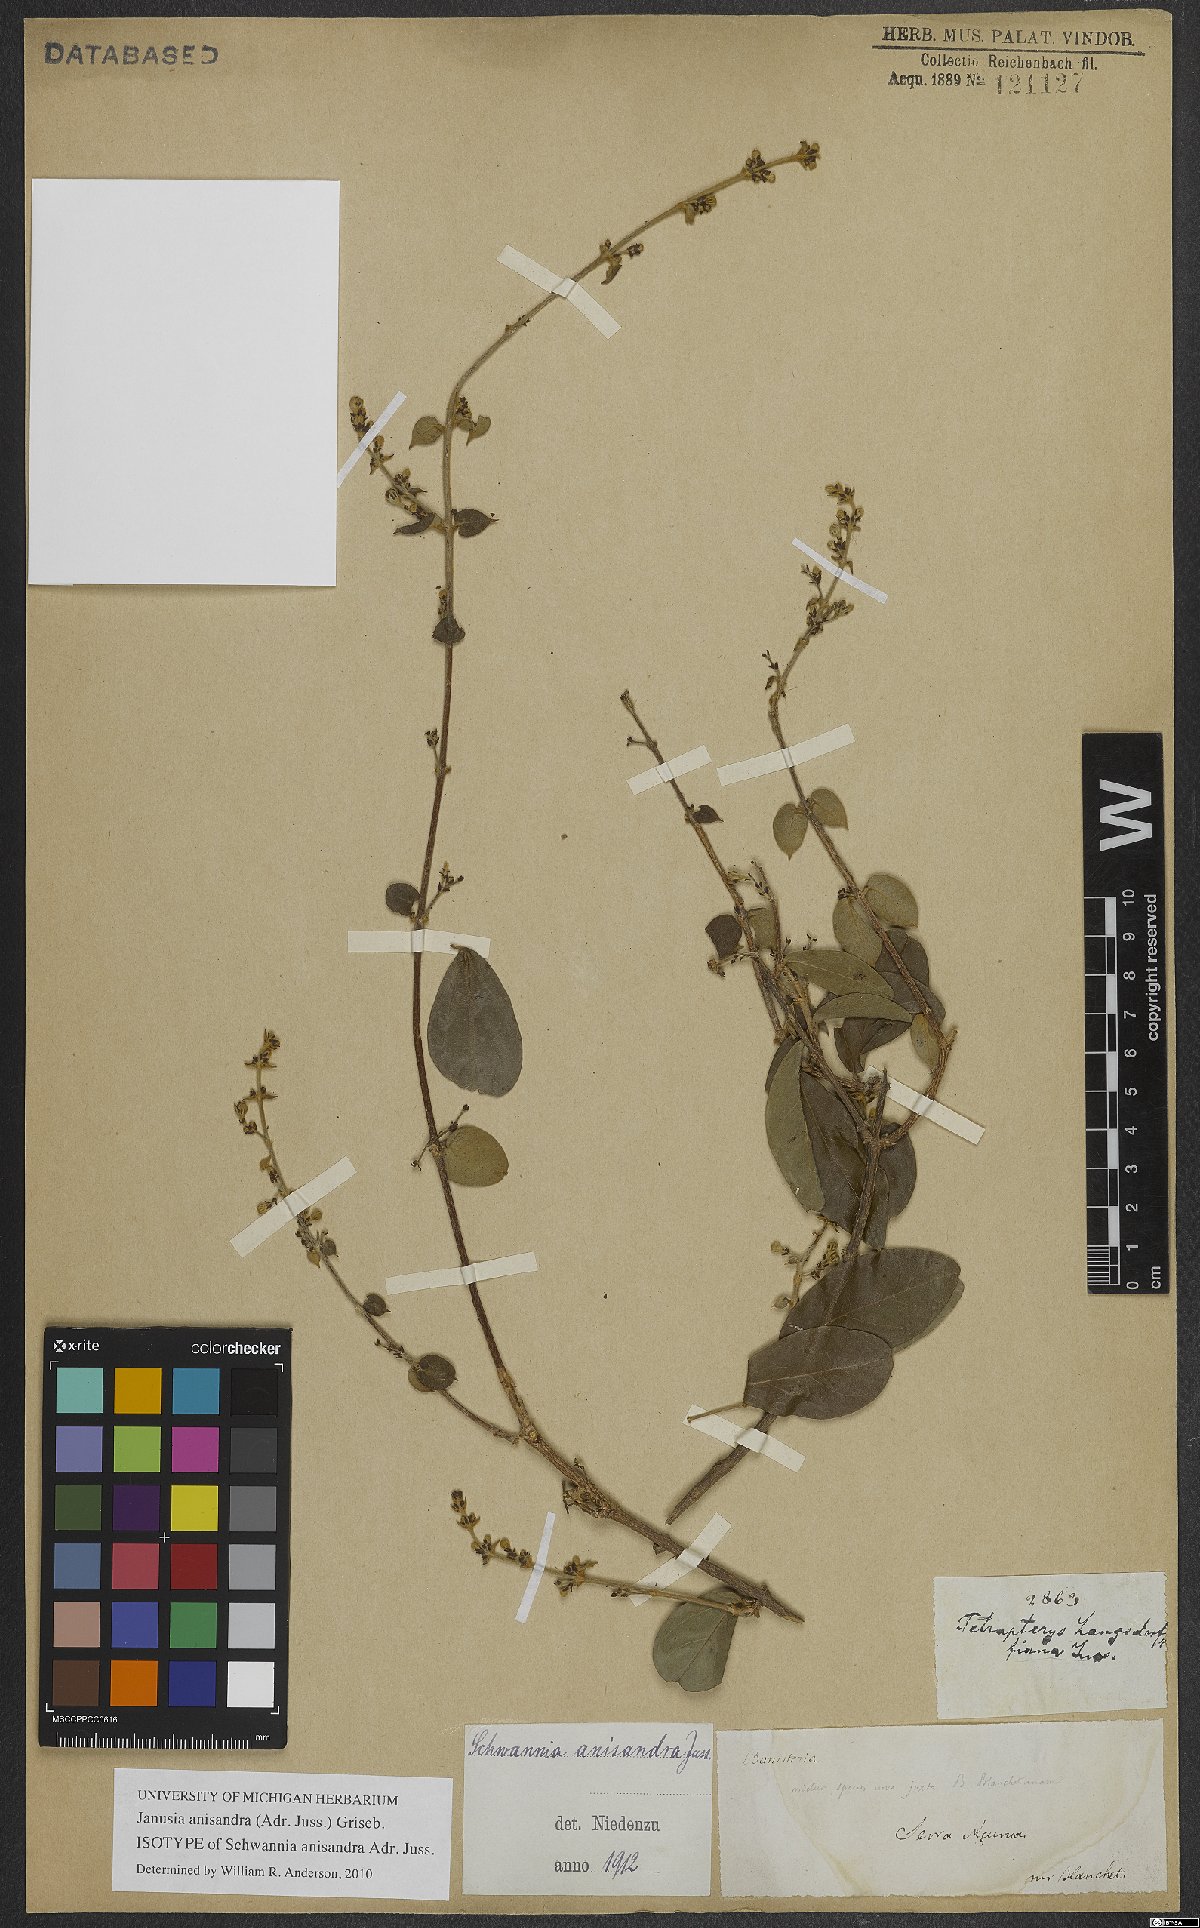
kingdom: Plantae
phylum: Tracheophyta
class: Magnoliopsida
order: Malpighiales
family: Malpighiaceae
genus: Janusia
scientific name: Janusia anisandra
